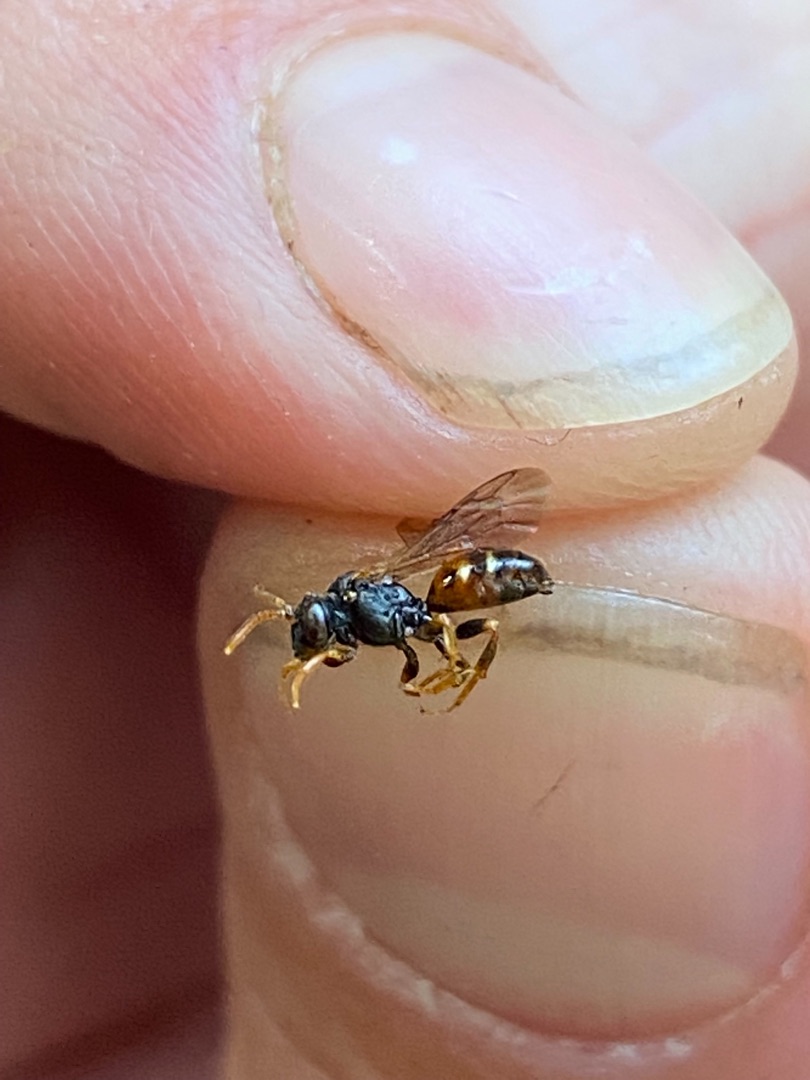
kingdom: Animalia
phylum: Arthropoda
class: Insecta
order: Hymenoptera
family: Apidae
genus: Nomada
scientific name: Nomada roberjeotiana
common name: Høsthvepsebi
